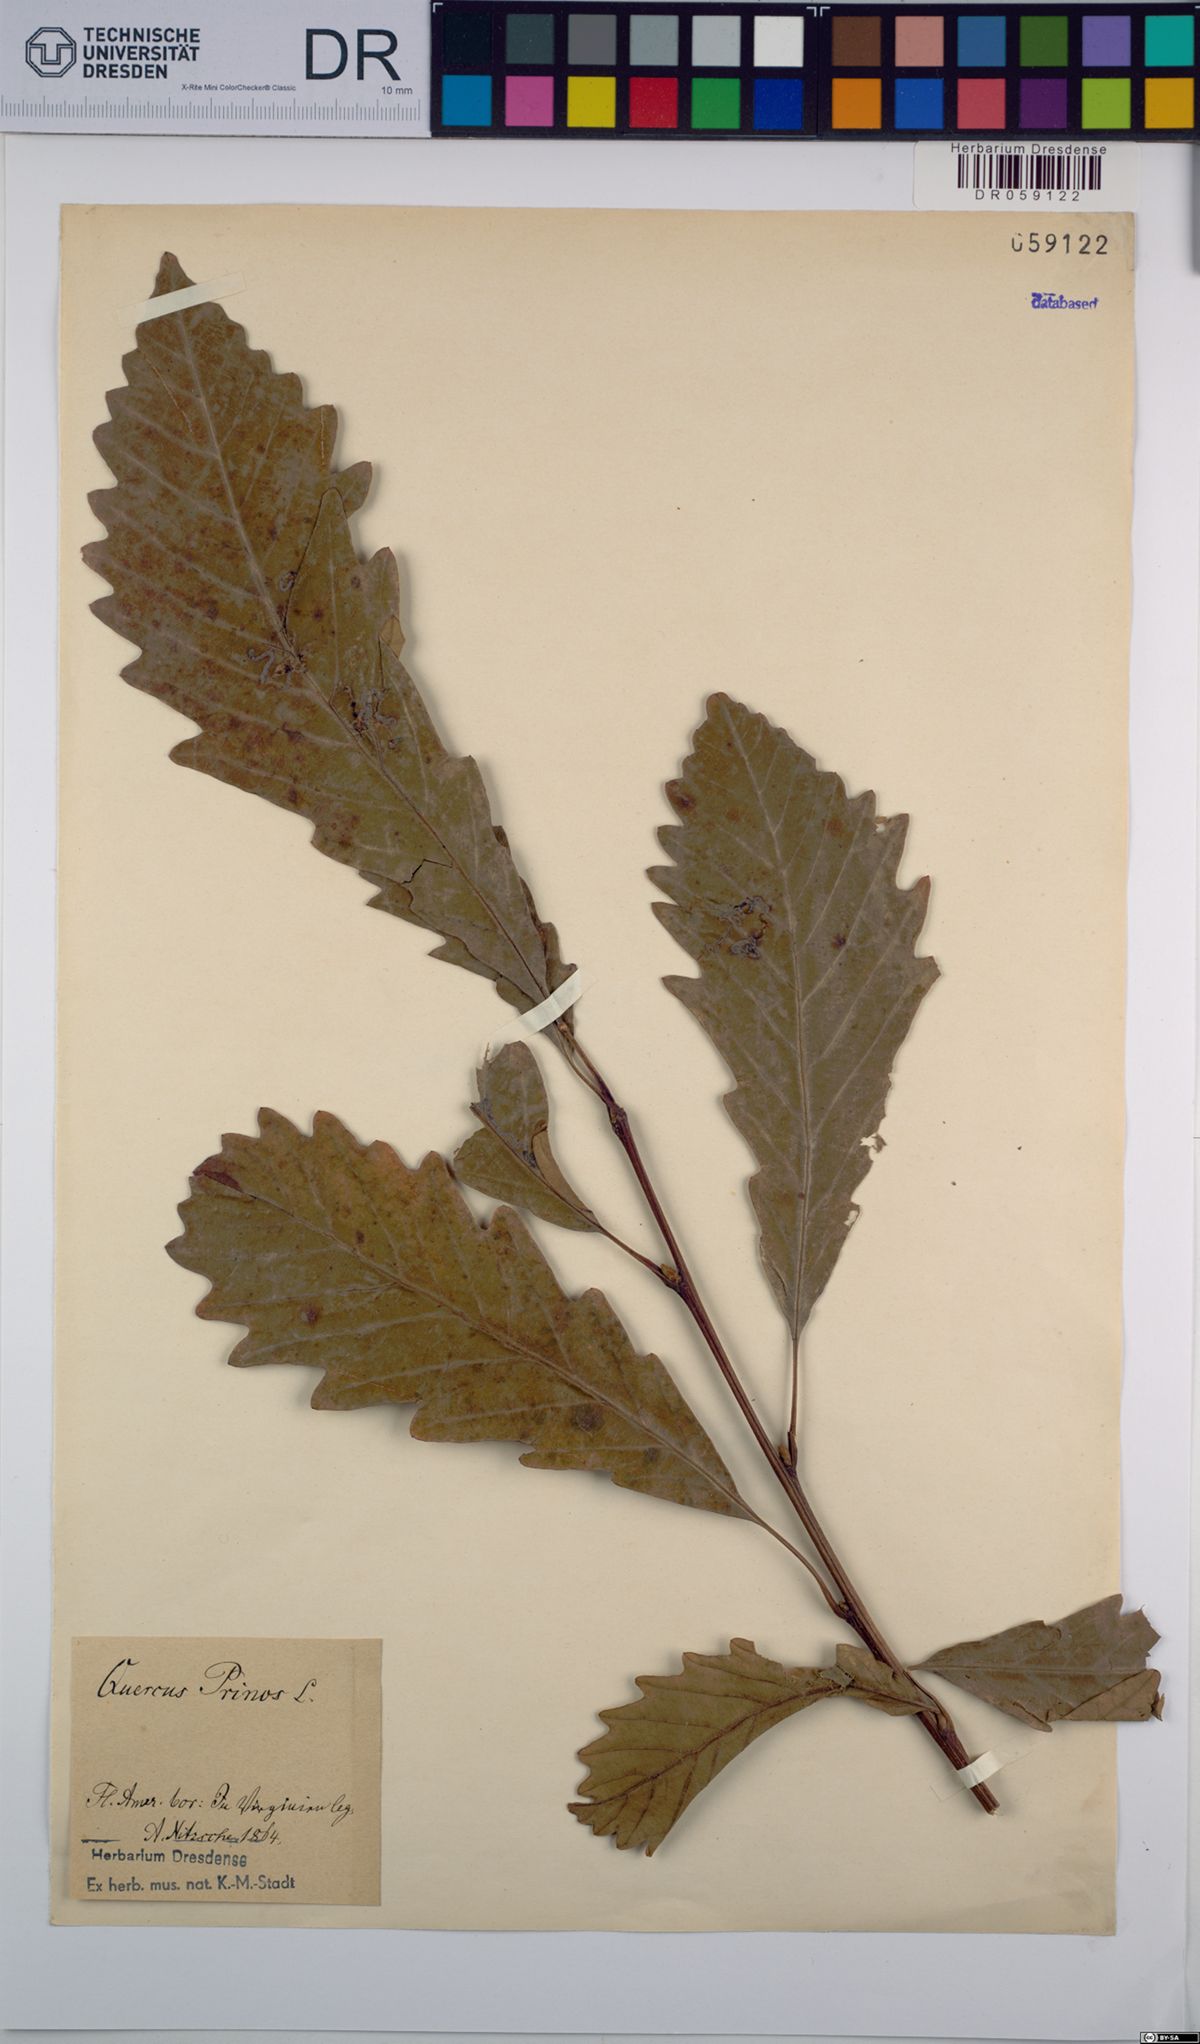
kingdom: Plantae
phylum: Tracheophyta
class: Magnoliopsida
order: Fagales
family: Fagaceae
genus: Quercus
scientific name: Quercus michauxii
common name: Swamp chestnut oak
